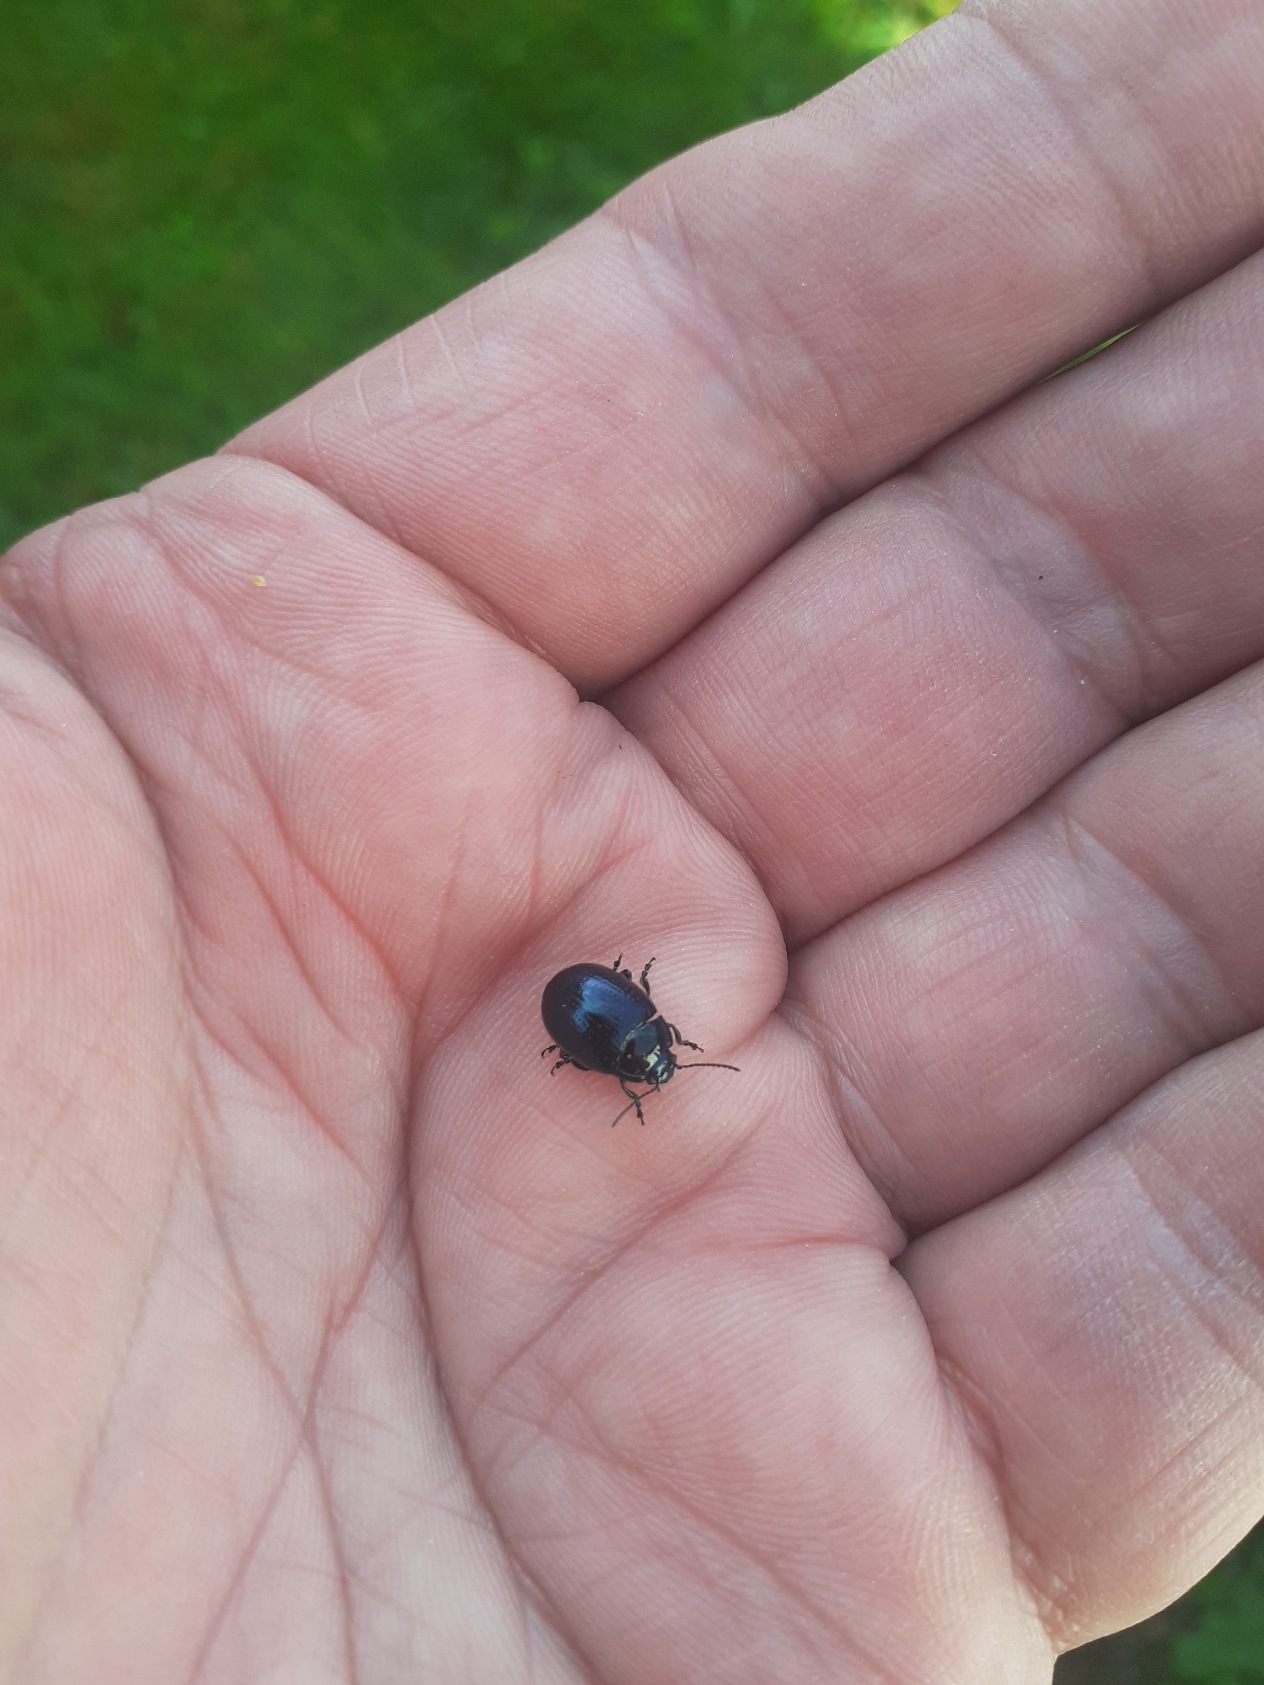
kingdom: Animalia
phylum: Arthropoda
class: Insecta
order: Coleoptera
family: Chrysomelidae
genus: Chrysolina
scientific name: Chrysolina oricalcia
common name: Rækkepunkteret guldbille
